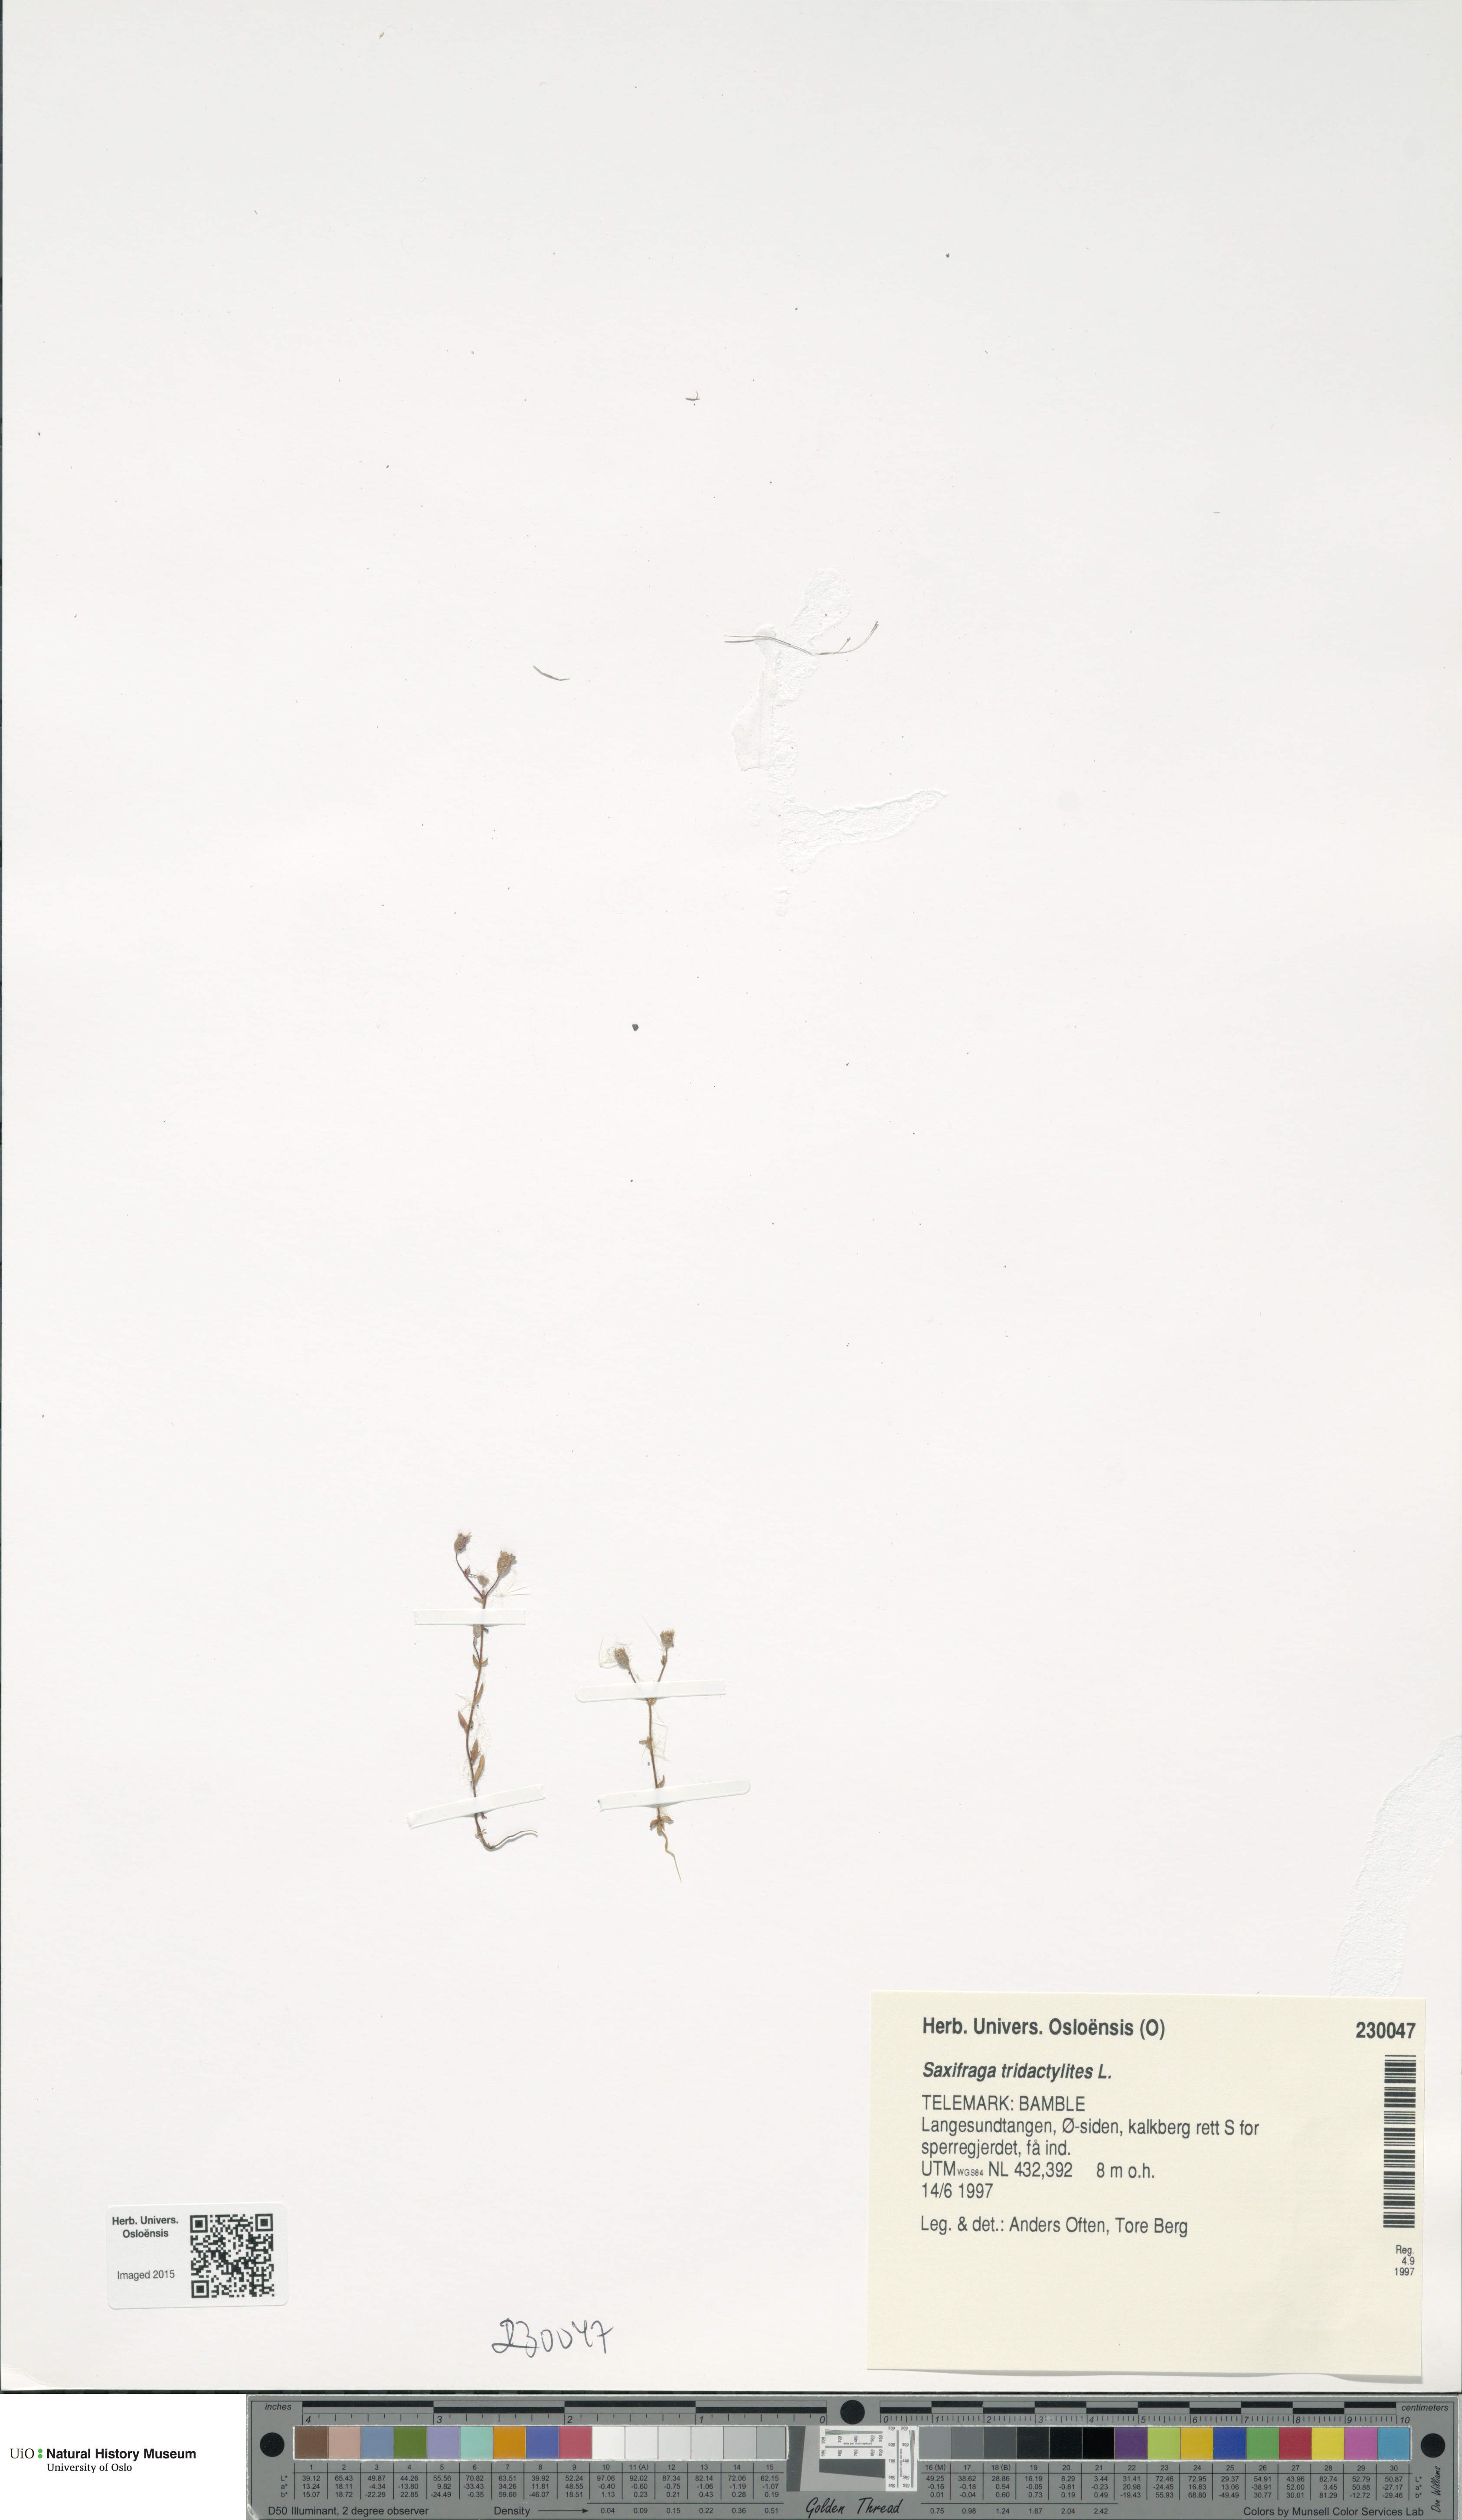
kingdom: Plantae
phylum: Tracheophyta
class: Magnoliopsida
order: Saxifragales
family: Saxifragaceae
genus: Saxifraga
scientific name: Saxifraga tridactylites
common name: Rue-leaved saxifrage
